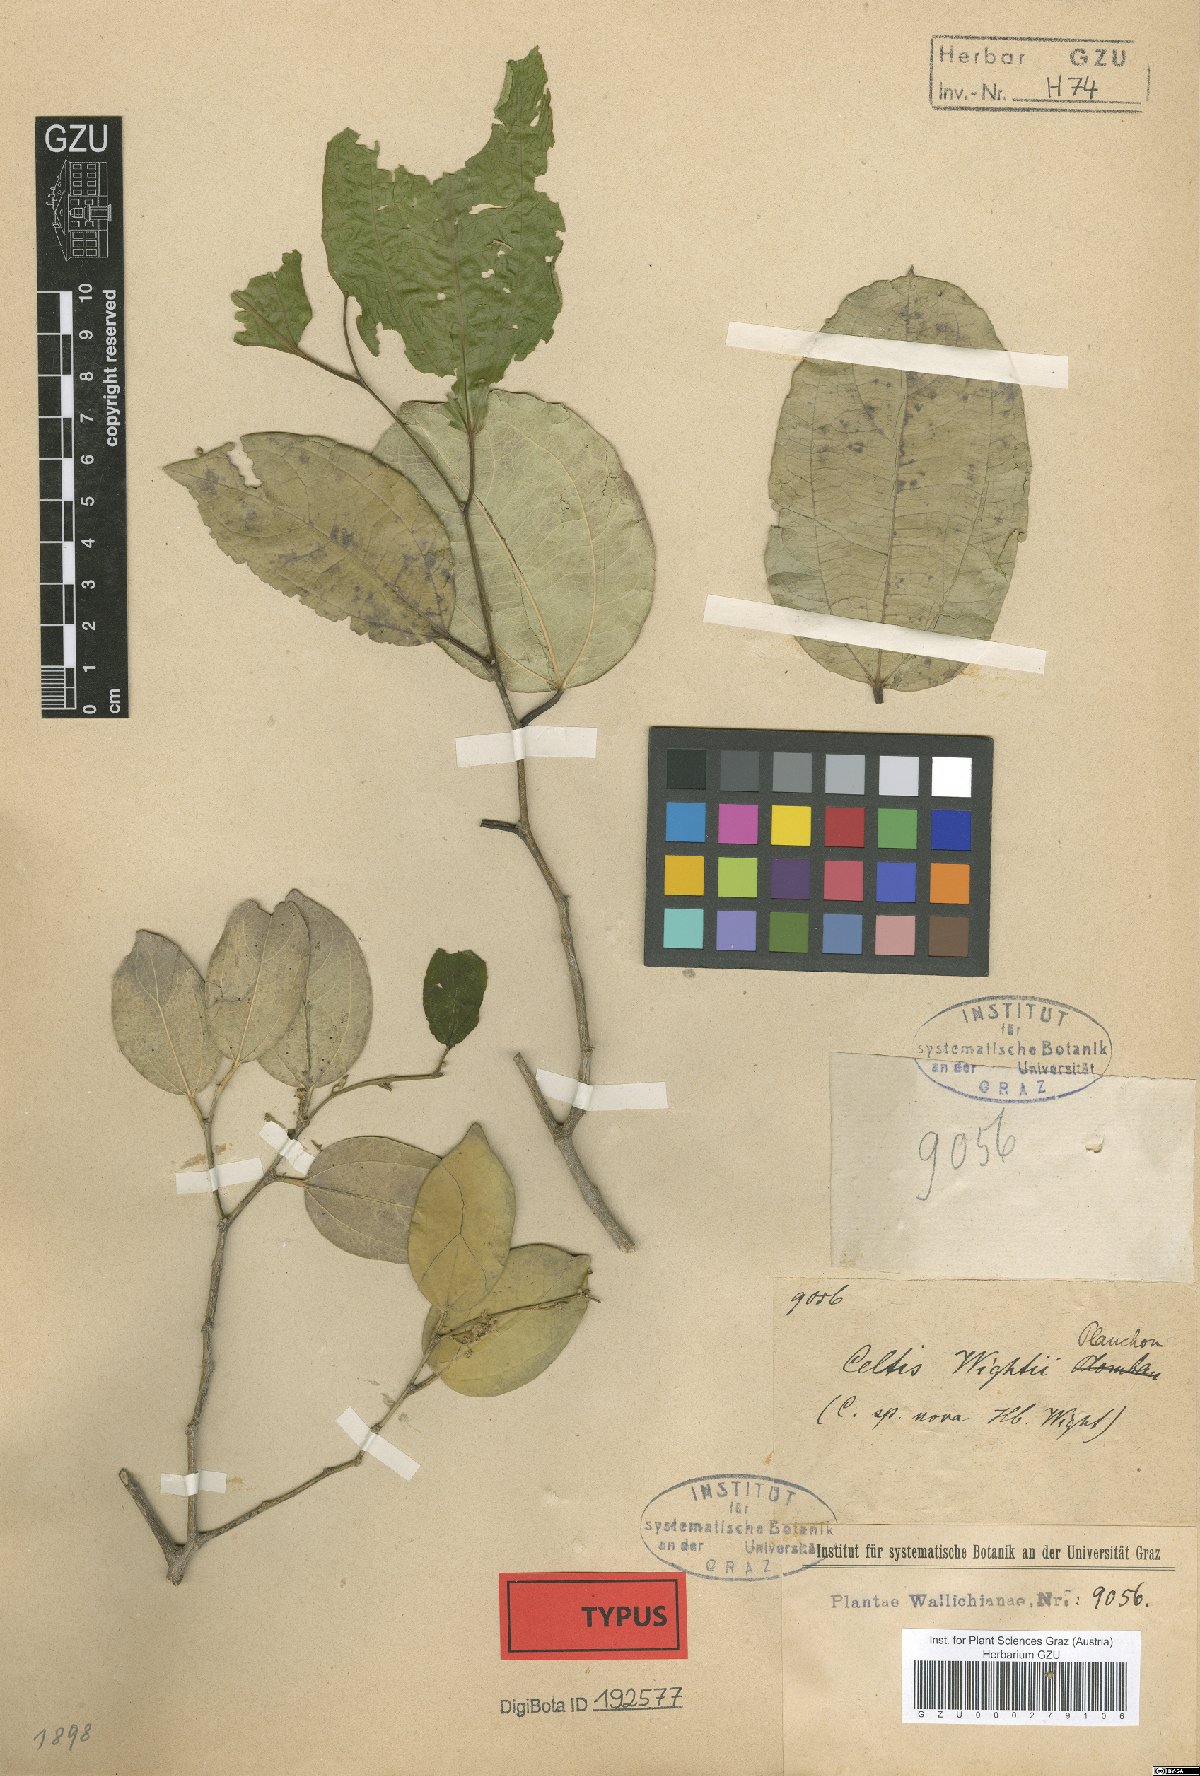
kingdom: Plantae
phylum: Tracheophyta
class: Magnoliopsida
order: Rosales
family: Cannabaceae
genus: Celtis
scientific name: Celtis philippensis
